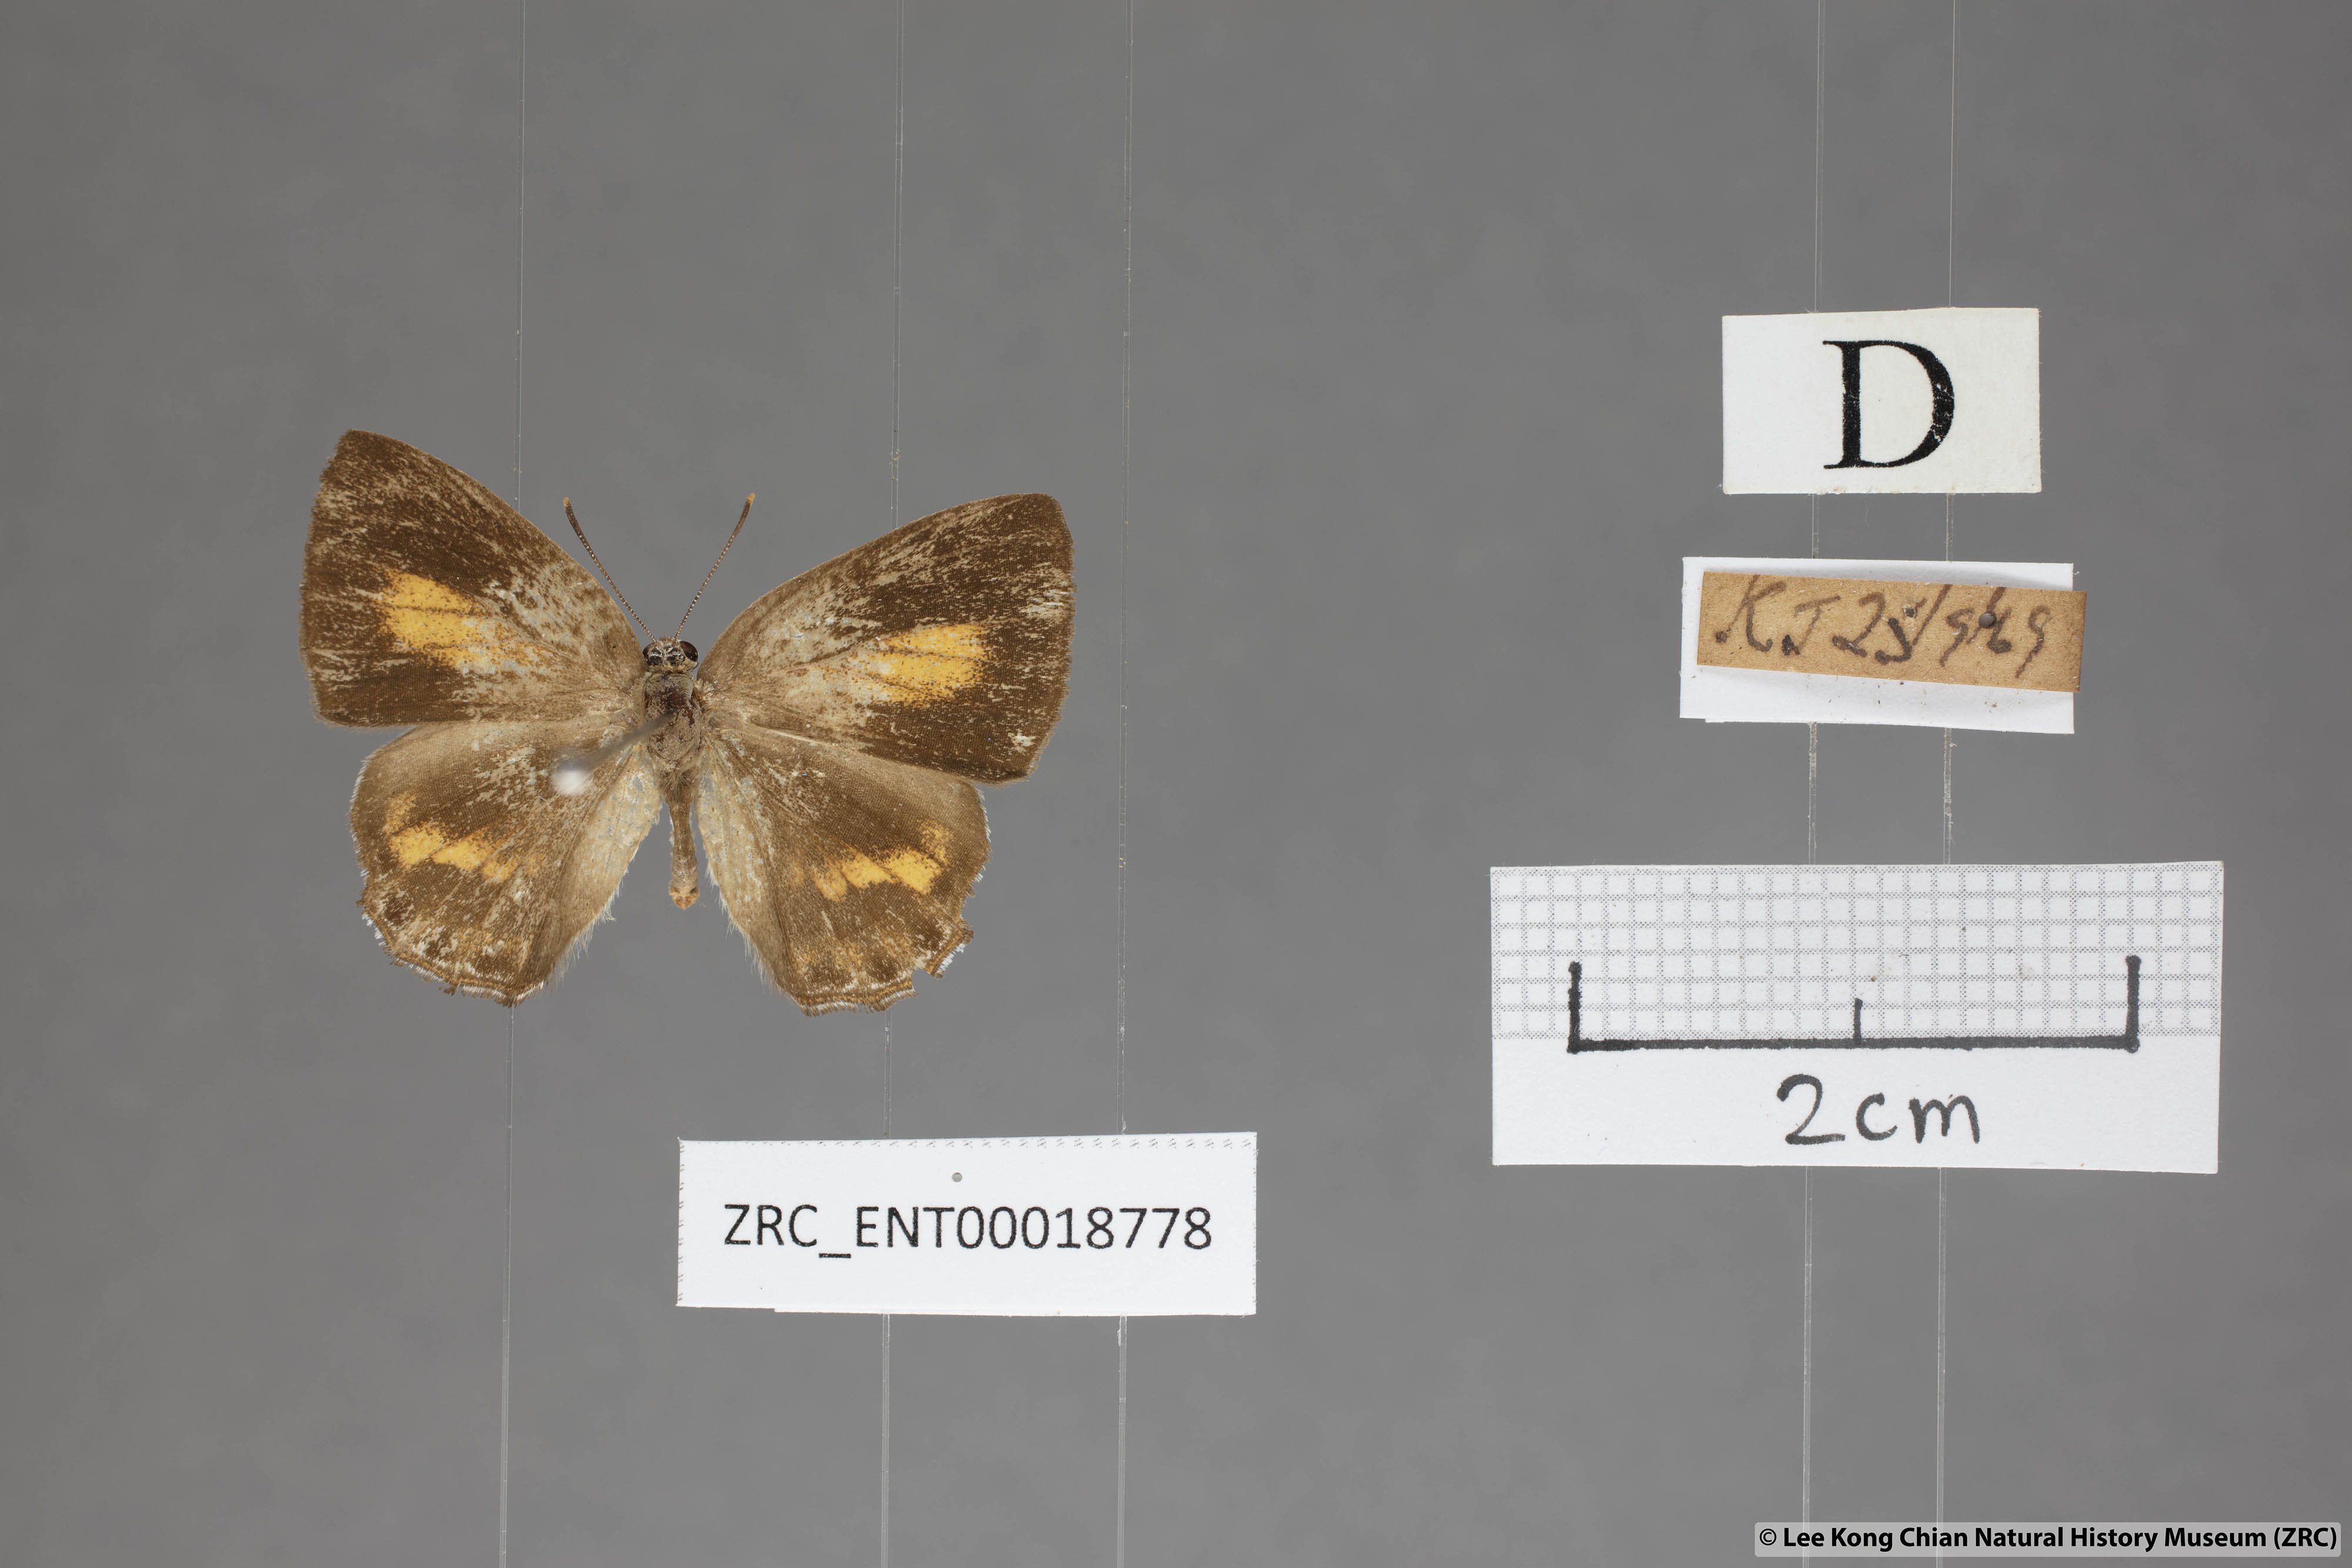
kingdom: Animalia
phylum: Arthropoda
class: Insecta
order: Lepidoptera
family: Lycaenidae
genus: Poritia
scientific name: Poritia erycinoides
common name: Blue gem
